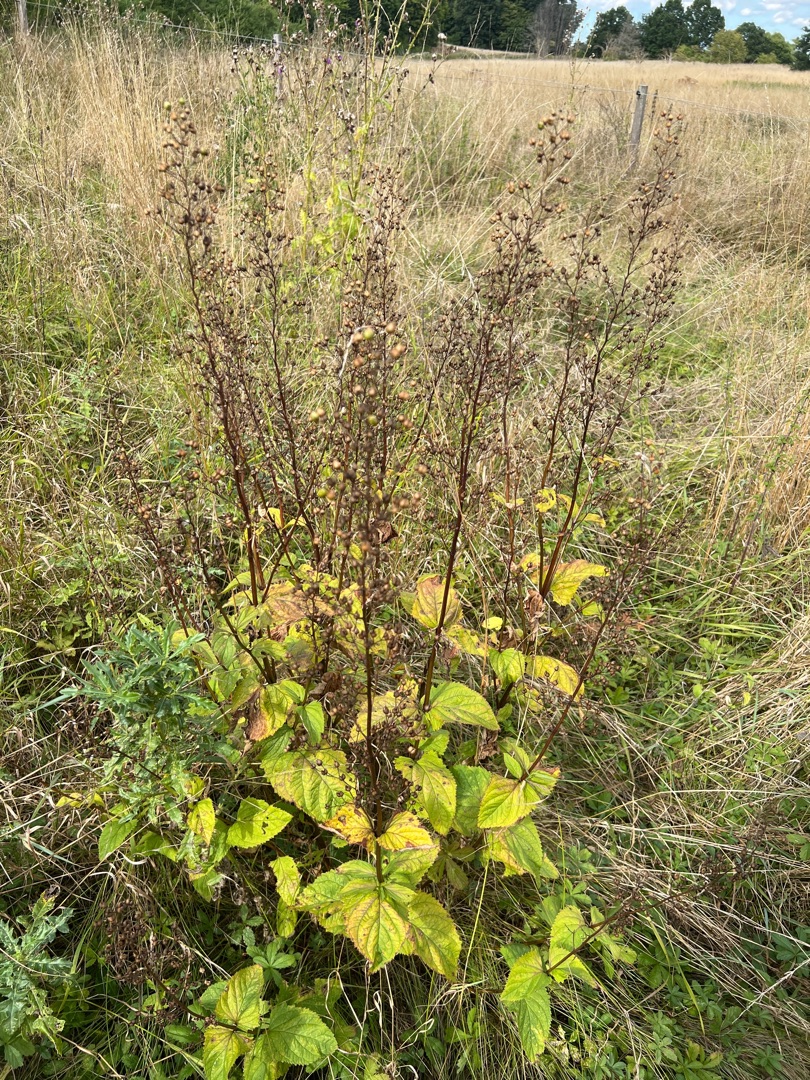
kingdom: Plantae
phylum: Tracheophyta
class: Magnoliopsida
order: Lamiales
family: Scrophulariaceae
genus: Scrophularia
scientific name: Scrophularia nodosa
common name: Knoldet brunrod
